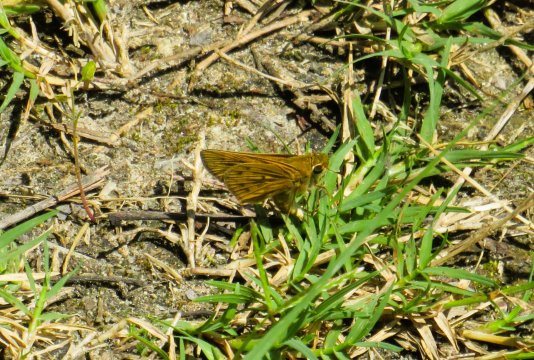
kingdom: Animalia
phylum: Arthropoda
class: Insecta
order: Lepidoptera
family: Hesperiidae
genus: Hylephila
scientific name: Hylephila phyleus
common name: Fiery Skipper
